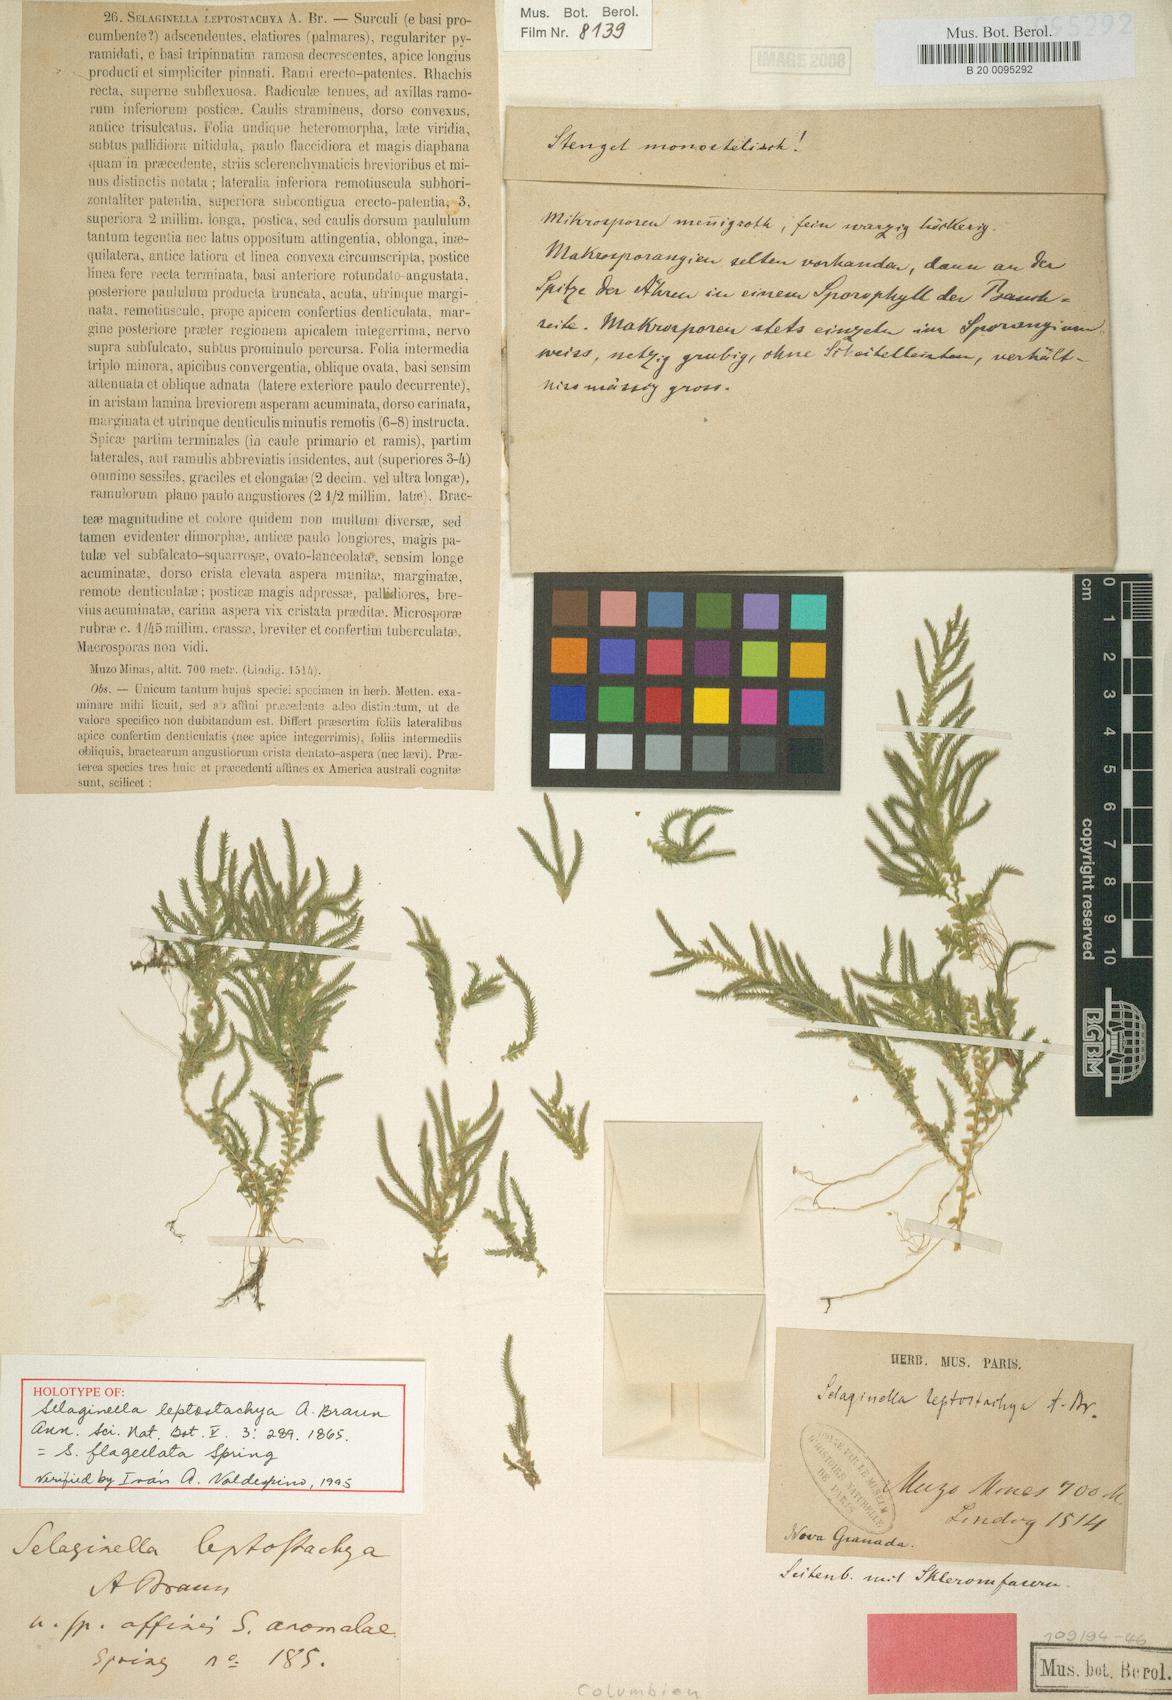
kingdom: Plantae
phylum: Tracheophyta
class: Lycopodiopsida
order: Selaginellales
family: Selaginellaceae
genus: Selaginella
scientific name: Selaginella flagellata
